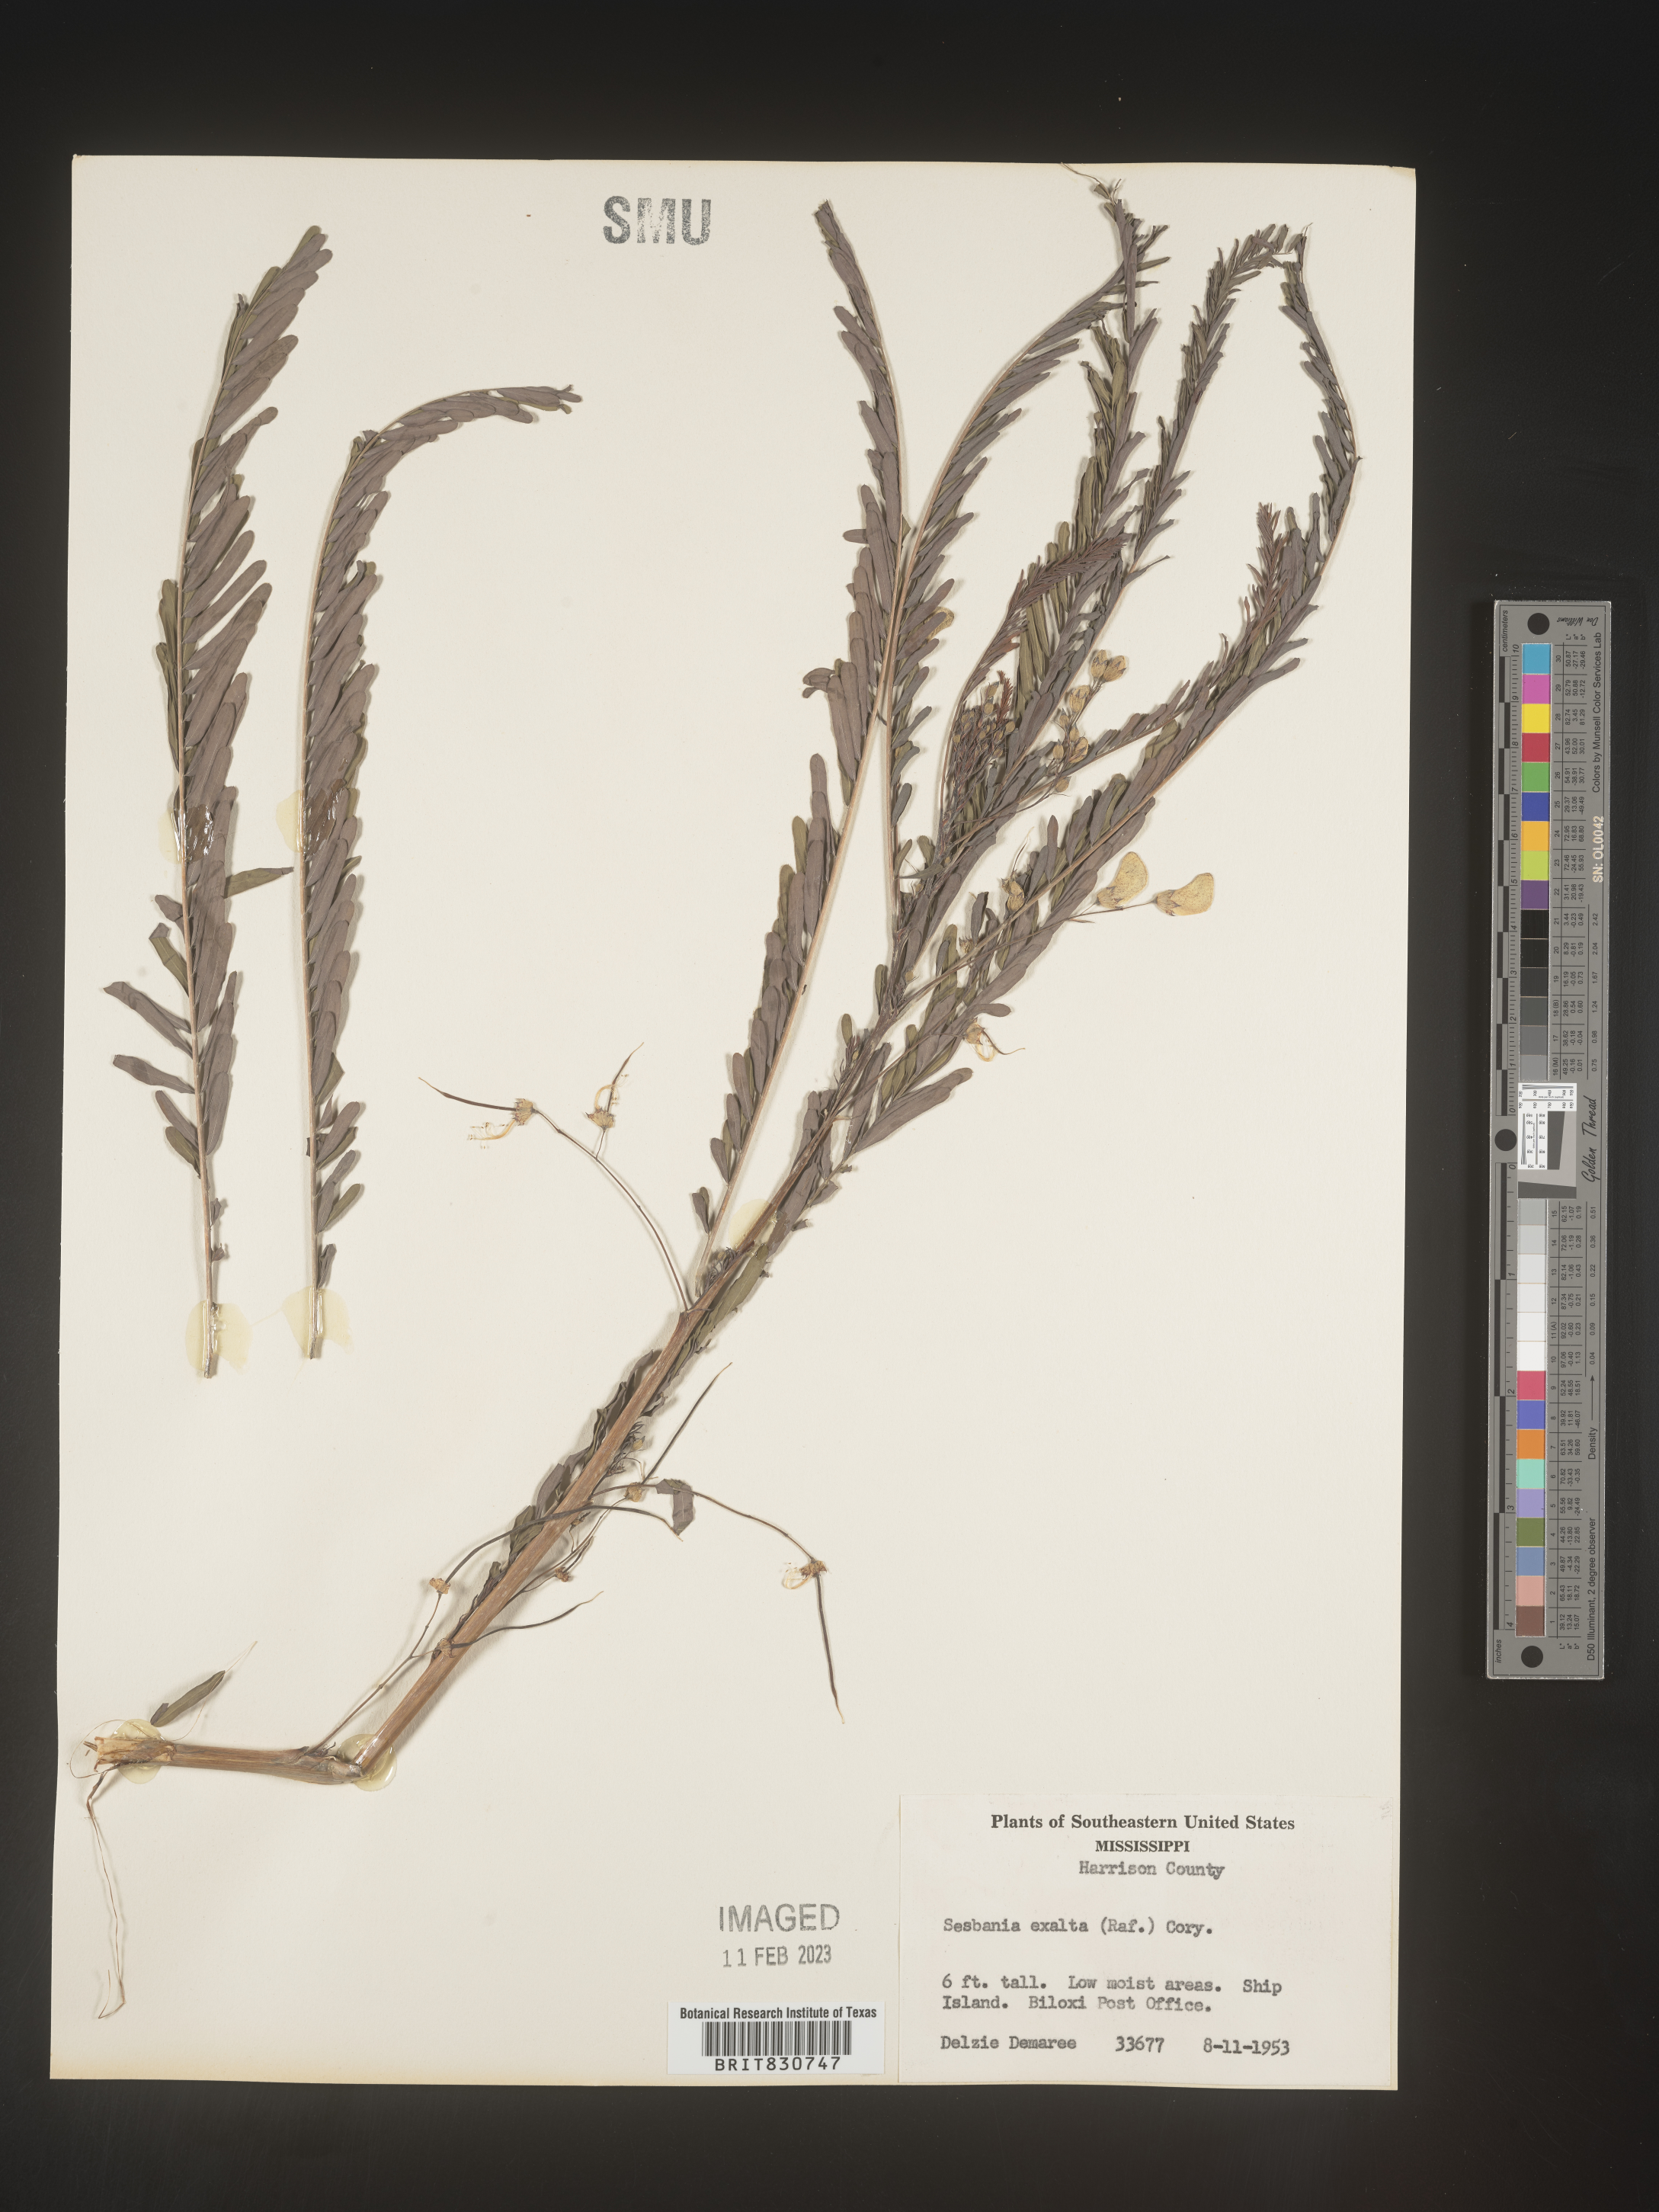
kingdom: Plantae
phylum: Tracheophyta
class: Magnoliopsida
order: Fabales
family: Fabaceae
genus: Sesbania
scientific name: Sesbania vesicaria
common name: Bagpod
